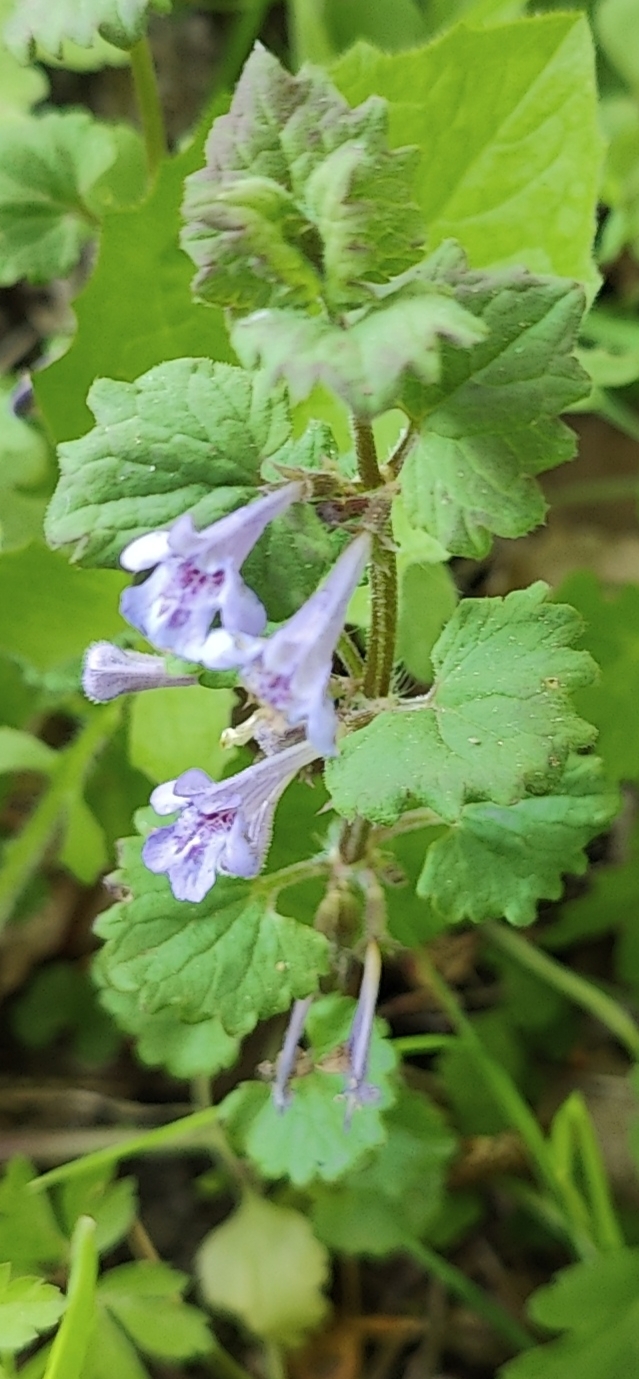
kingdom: Plantae
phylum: Tracheophyta
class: Magnoliopsida
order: Lamiales
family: Lamiaceae
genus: Glechoma
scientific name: Glechoma hederacea
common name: Korsknap
